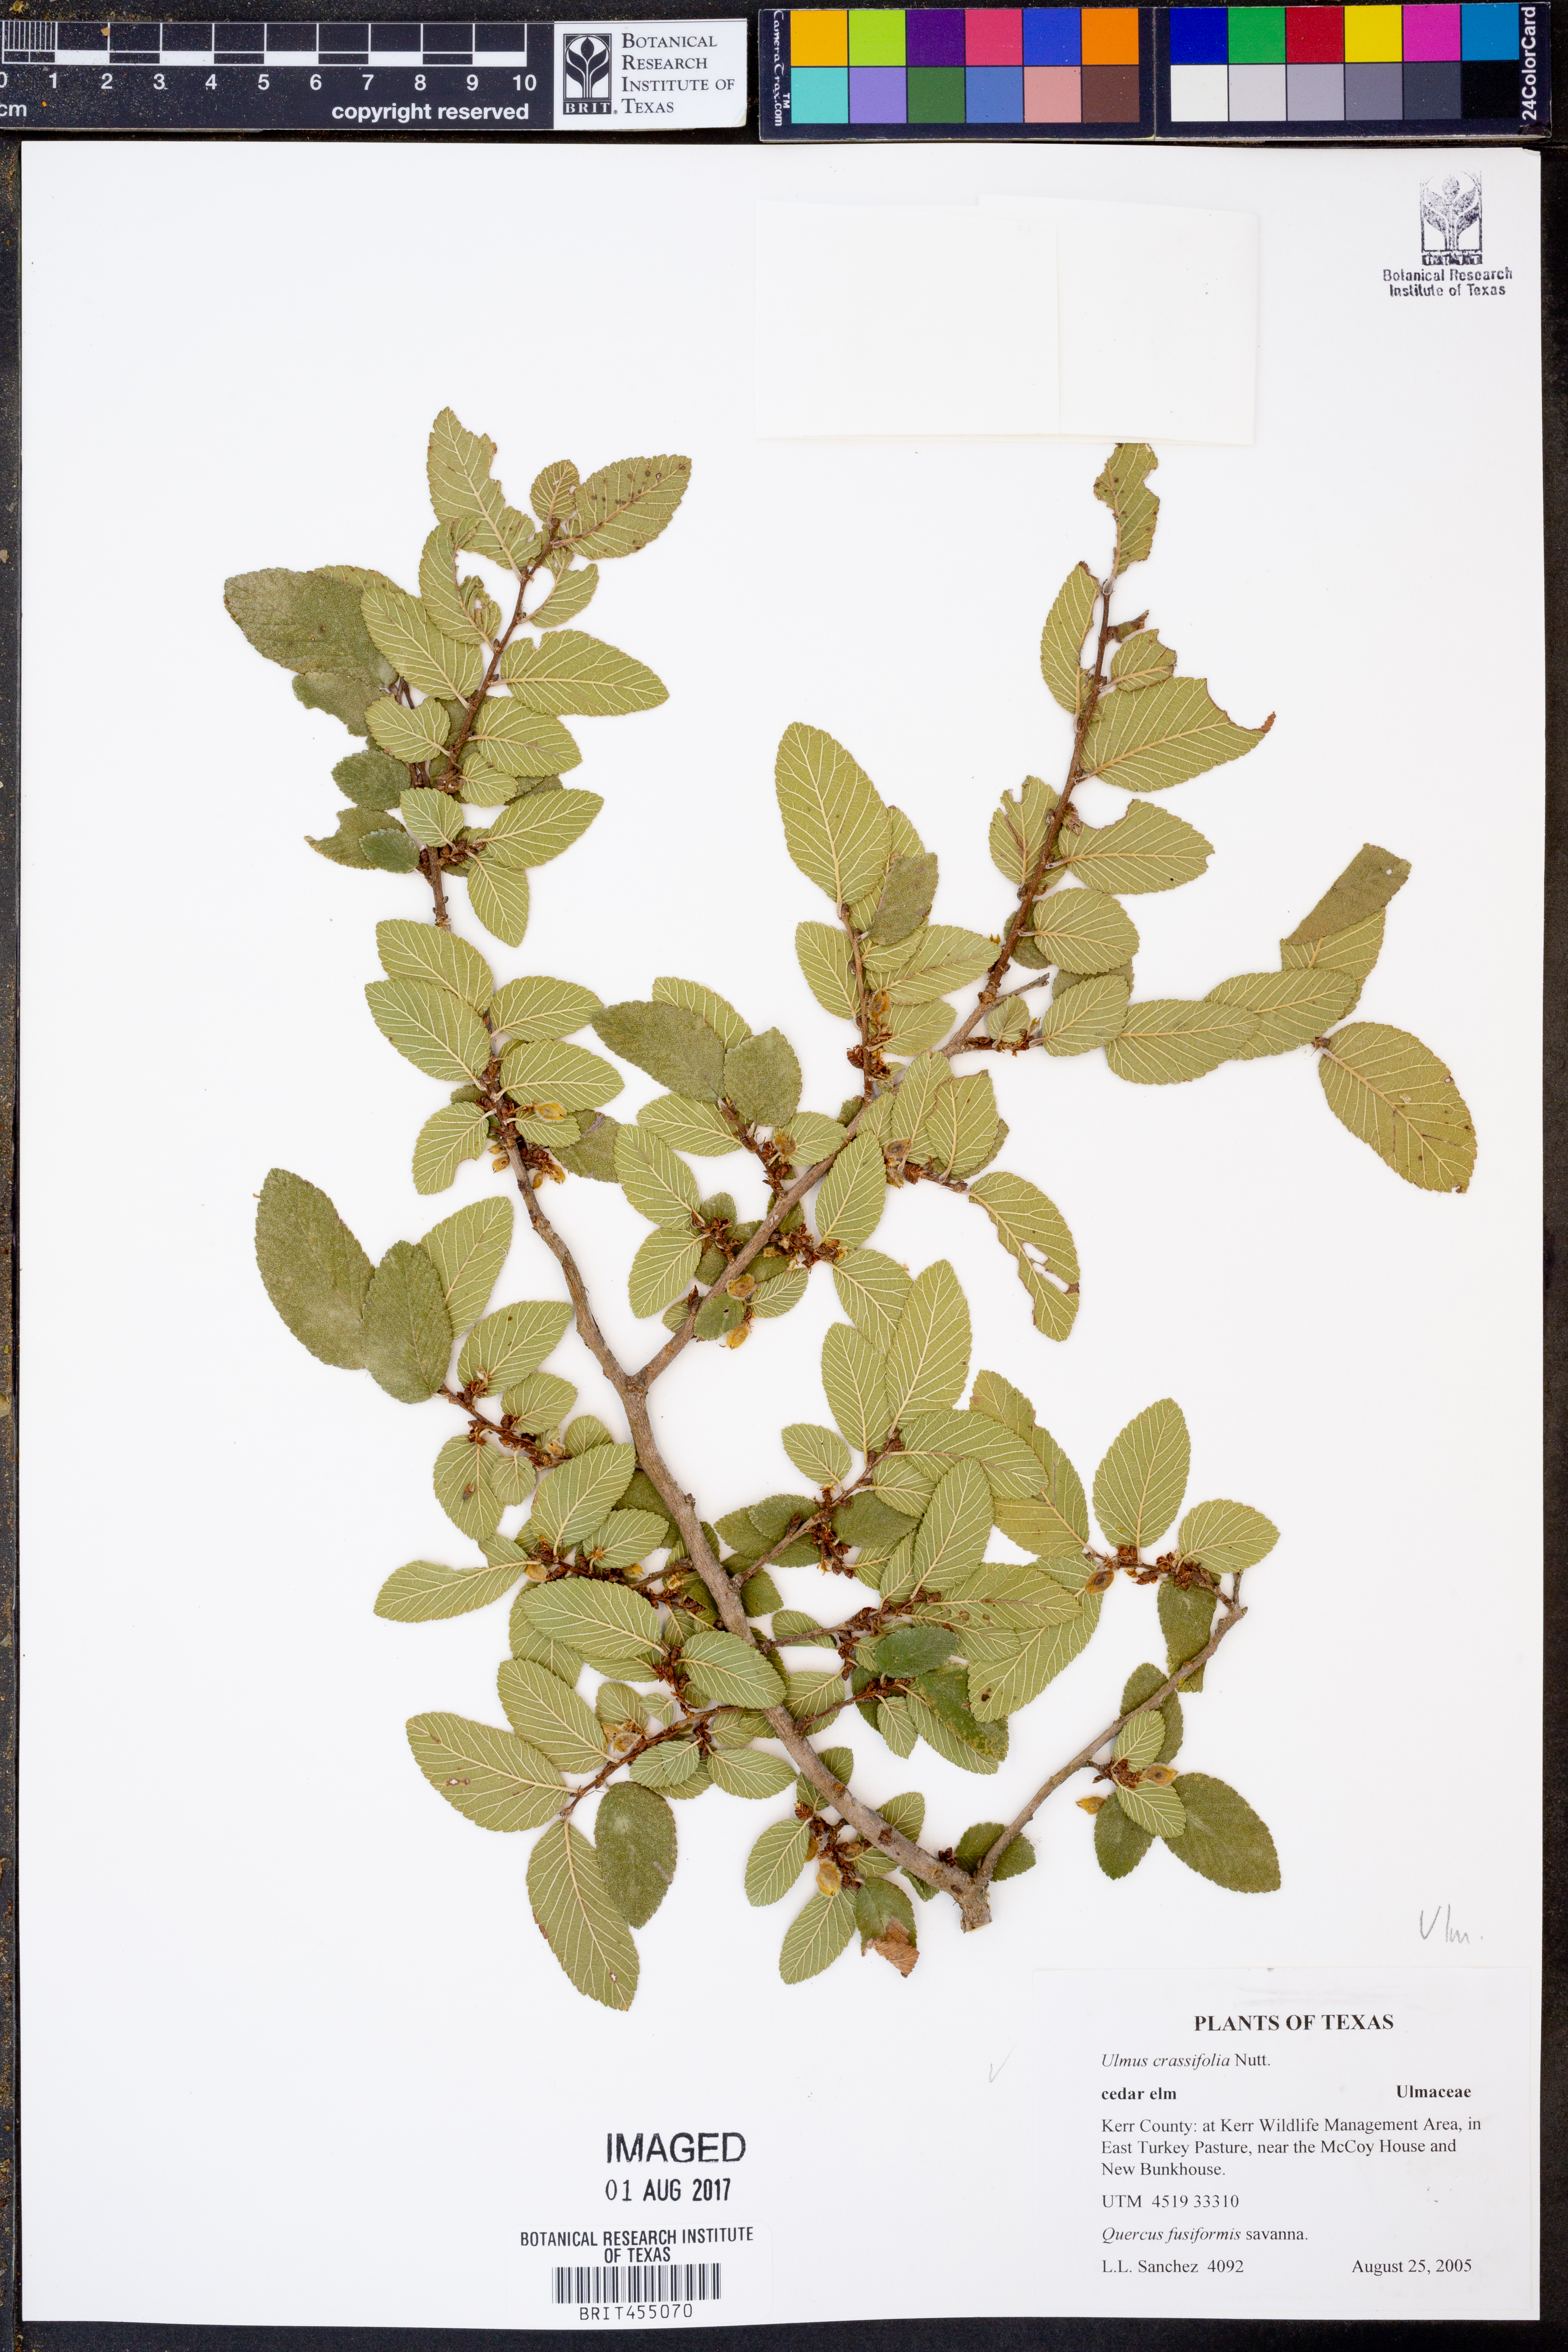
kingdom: Plantae
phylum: Tracheophyta
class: Magnoliopsida
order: Rosales
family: Ulmaceae
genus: Ulmus
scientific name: Ulmus crassifolia
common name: Basket elm
